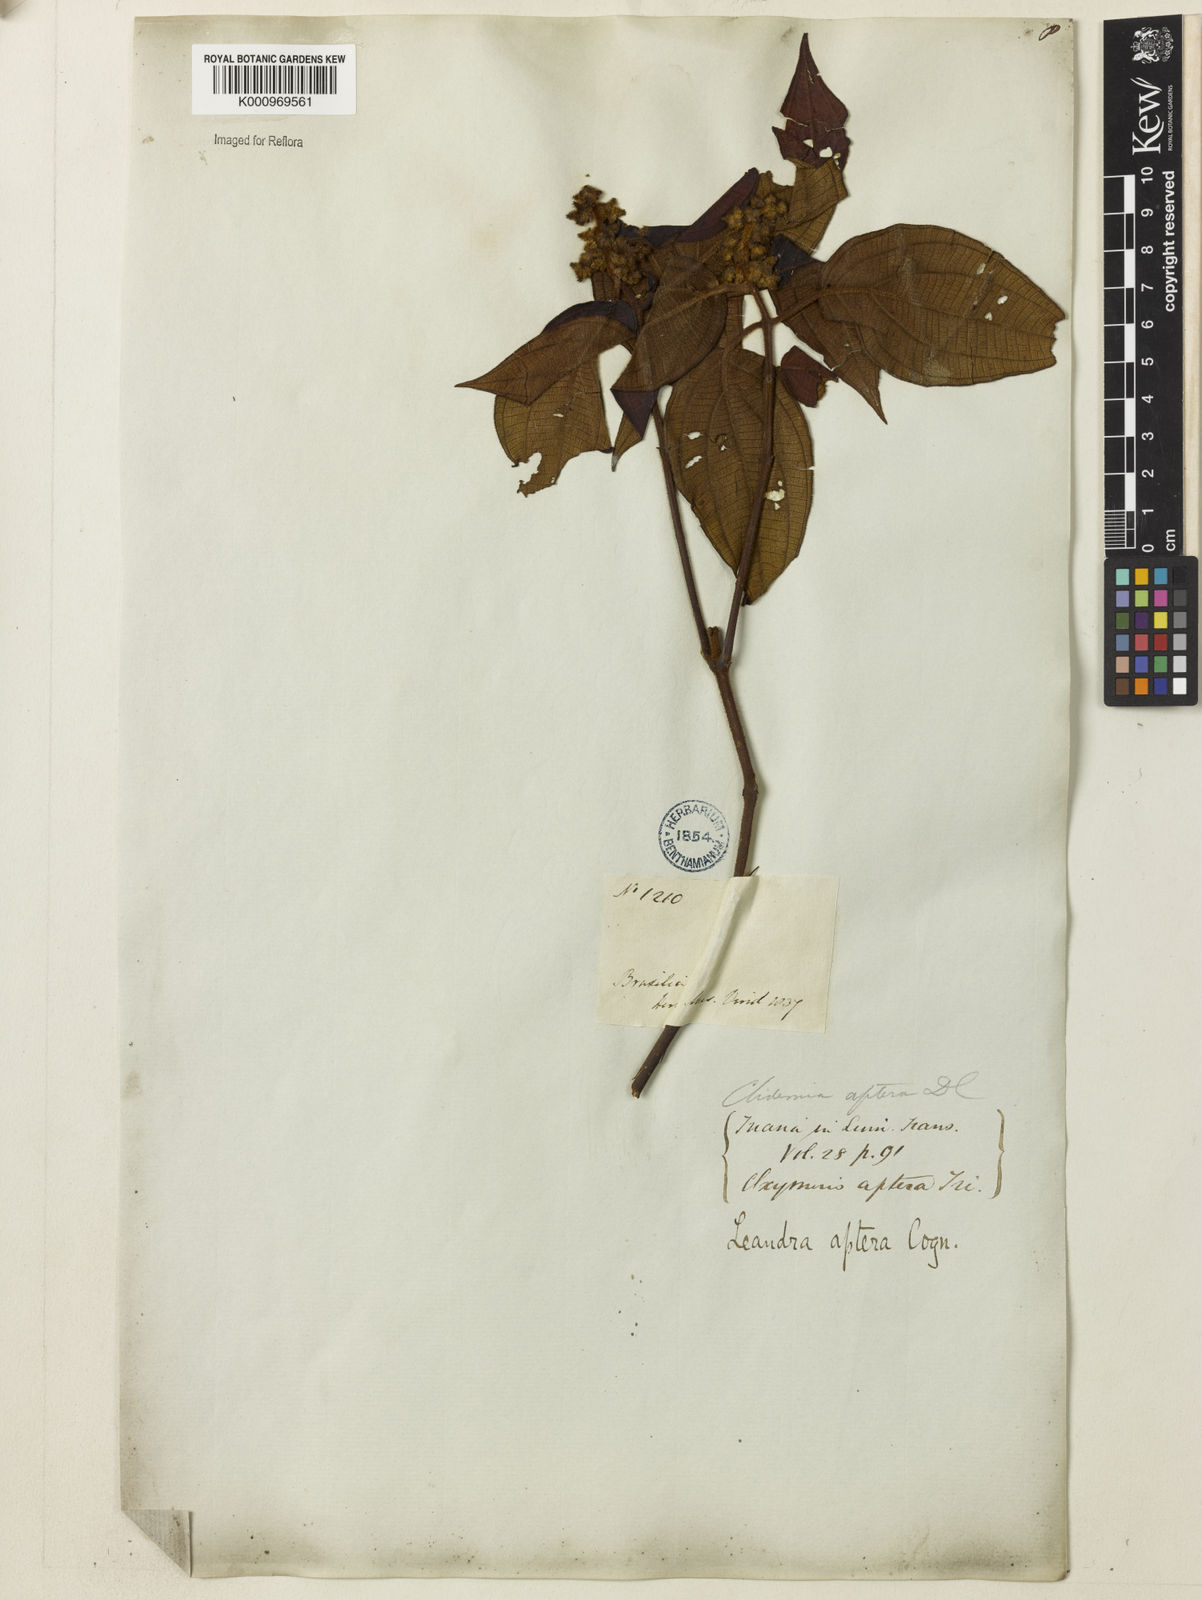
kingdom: Plantae
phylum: Tracheophyta
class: Magnoliopsida
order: Myrtales
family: Melastomataceae
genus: Miconia
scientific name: Miconia aptera
